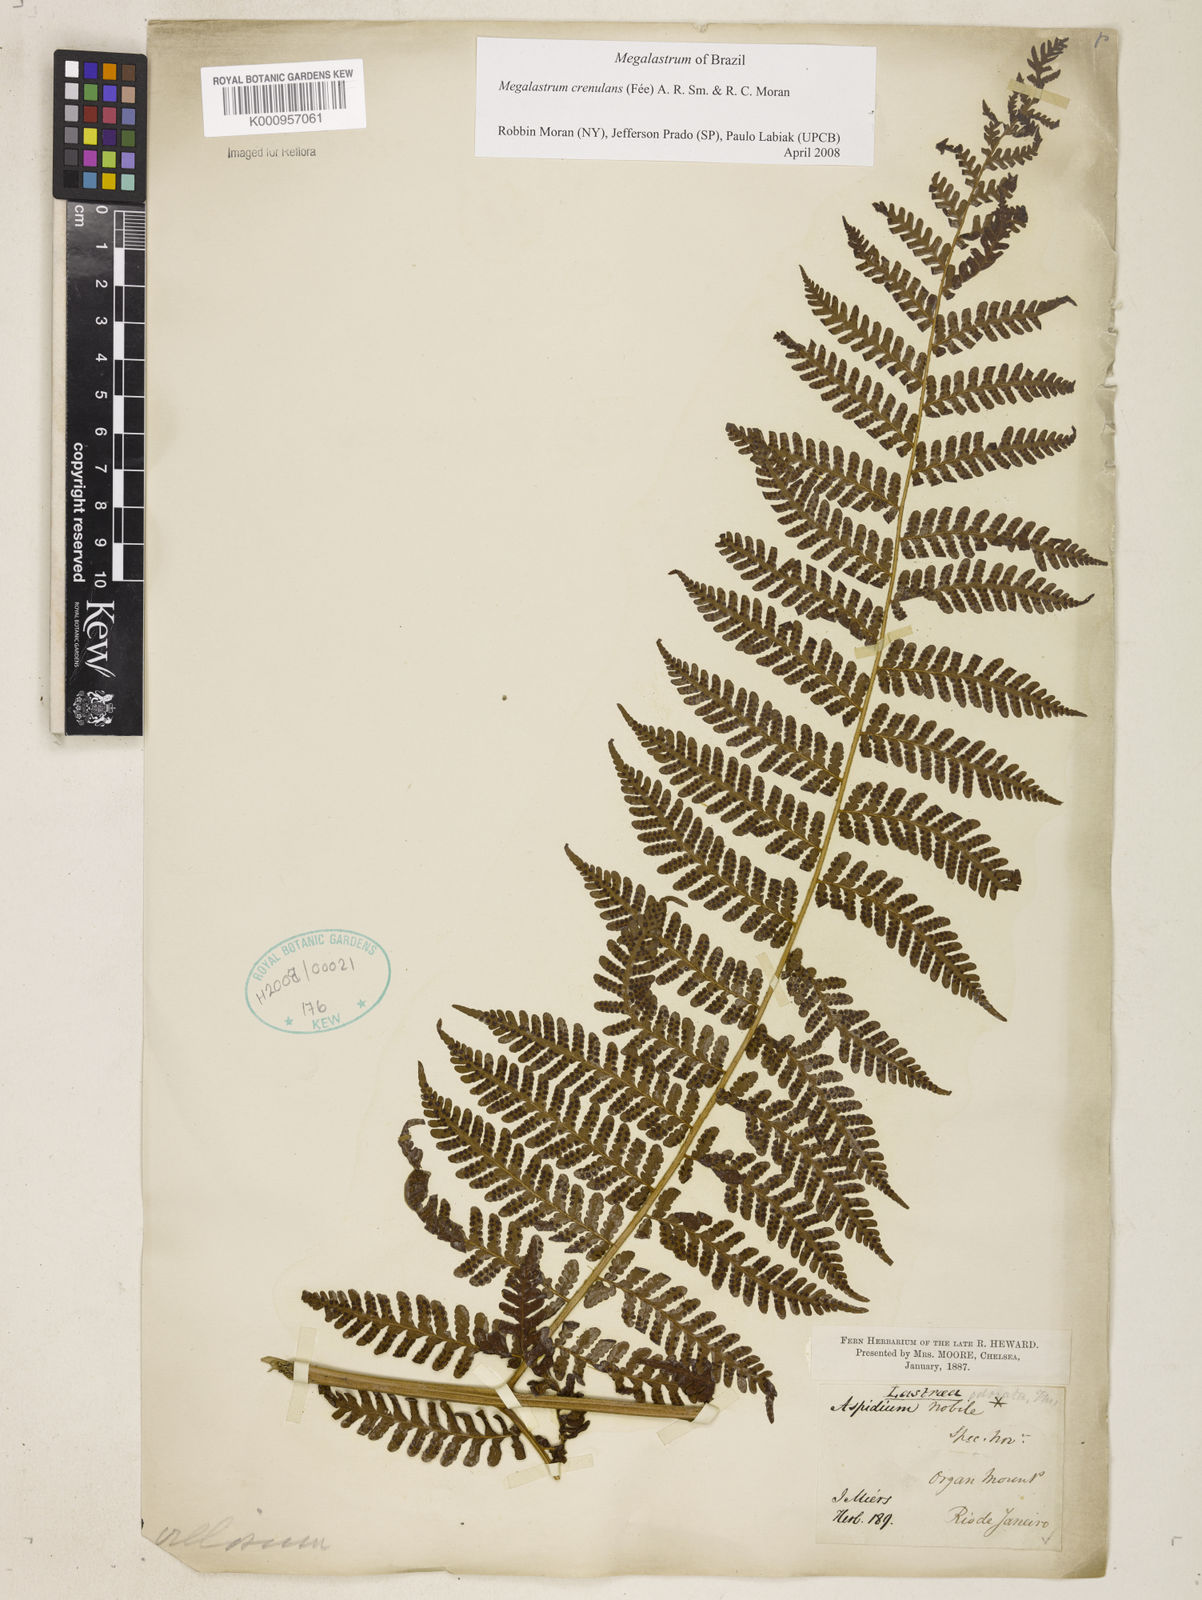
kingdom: Plantae
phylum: Tracheophyta
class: Polypodiopsida
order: Polypodiales
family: Dryopteridaceae
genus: Megalastrum
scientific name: Megalastrum
